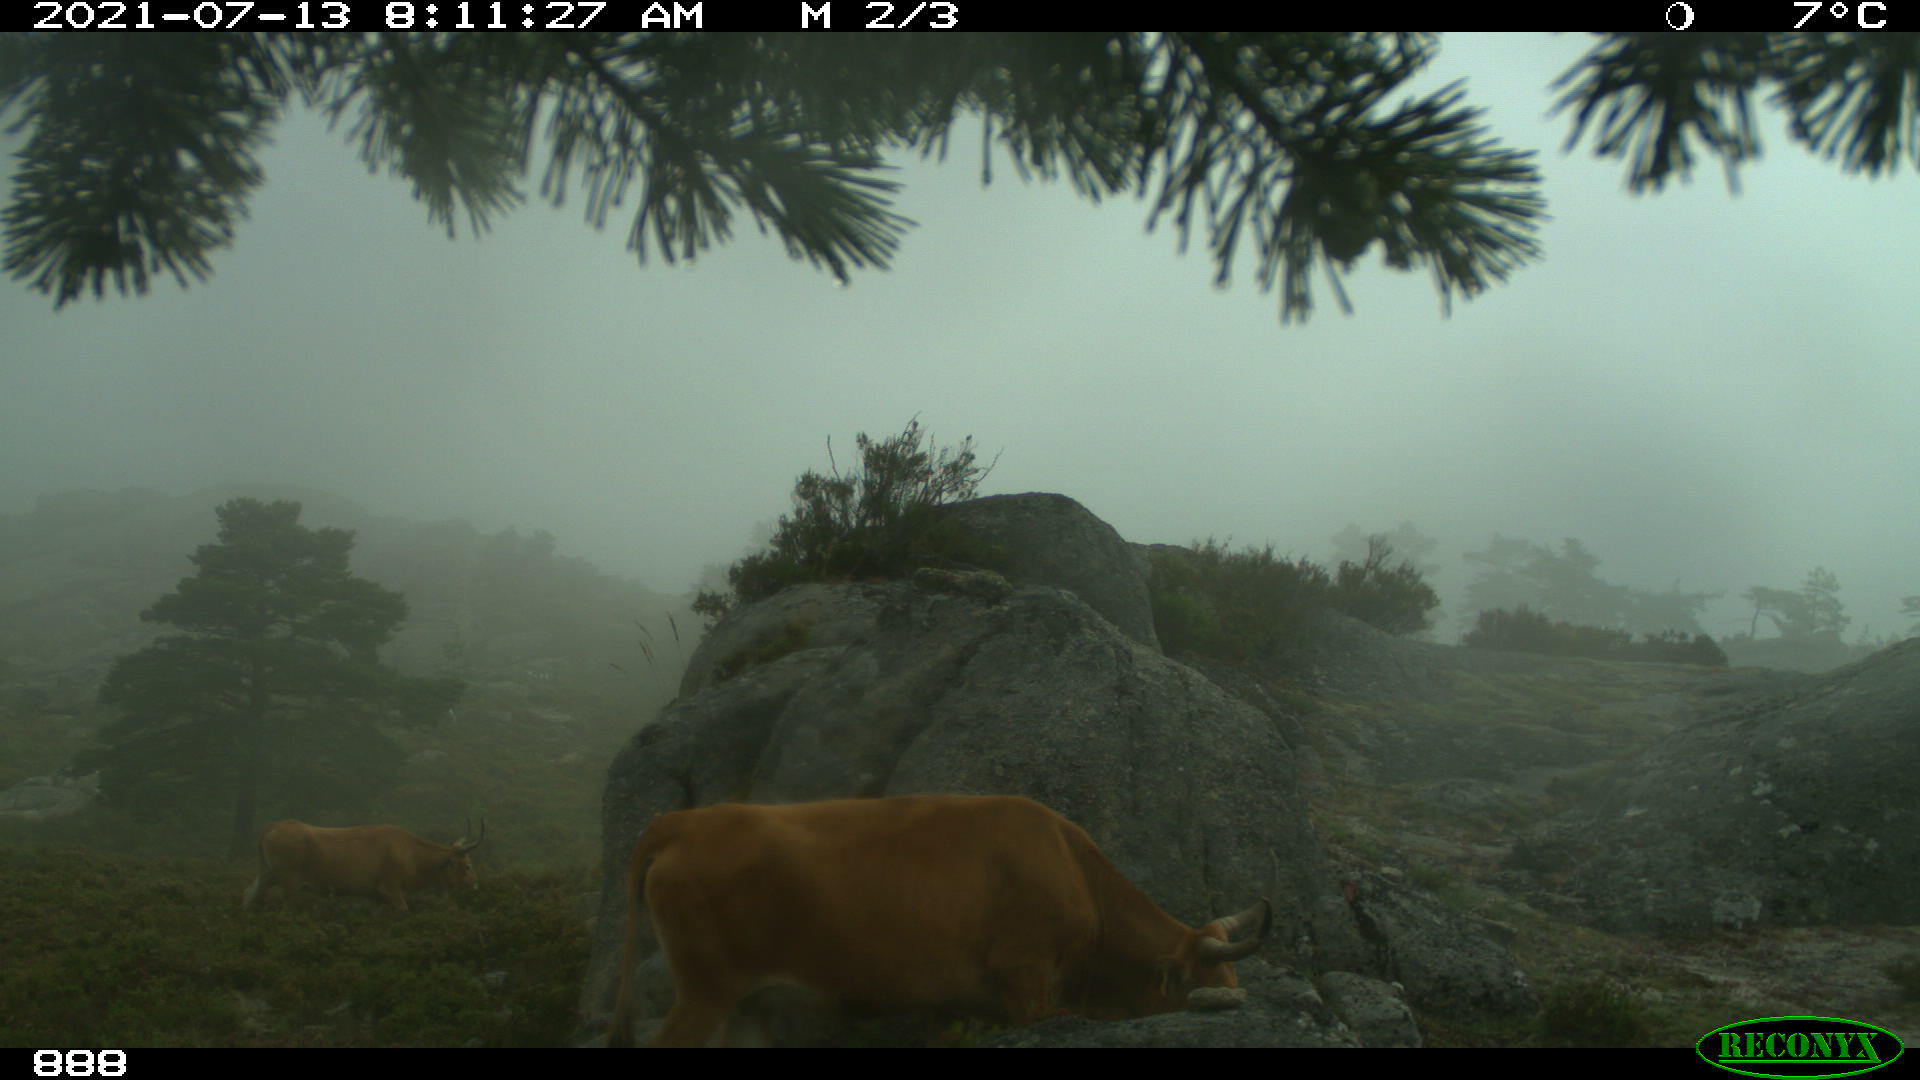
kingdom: Animalia
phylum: Chordata
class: Mammalia
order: Artiodactyla
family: Bovidae
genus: Bos
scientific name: Bos taurus
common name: Domesticated cattle
